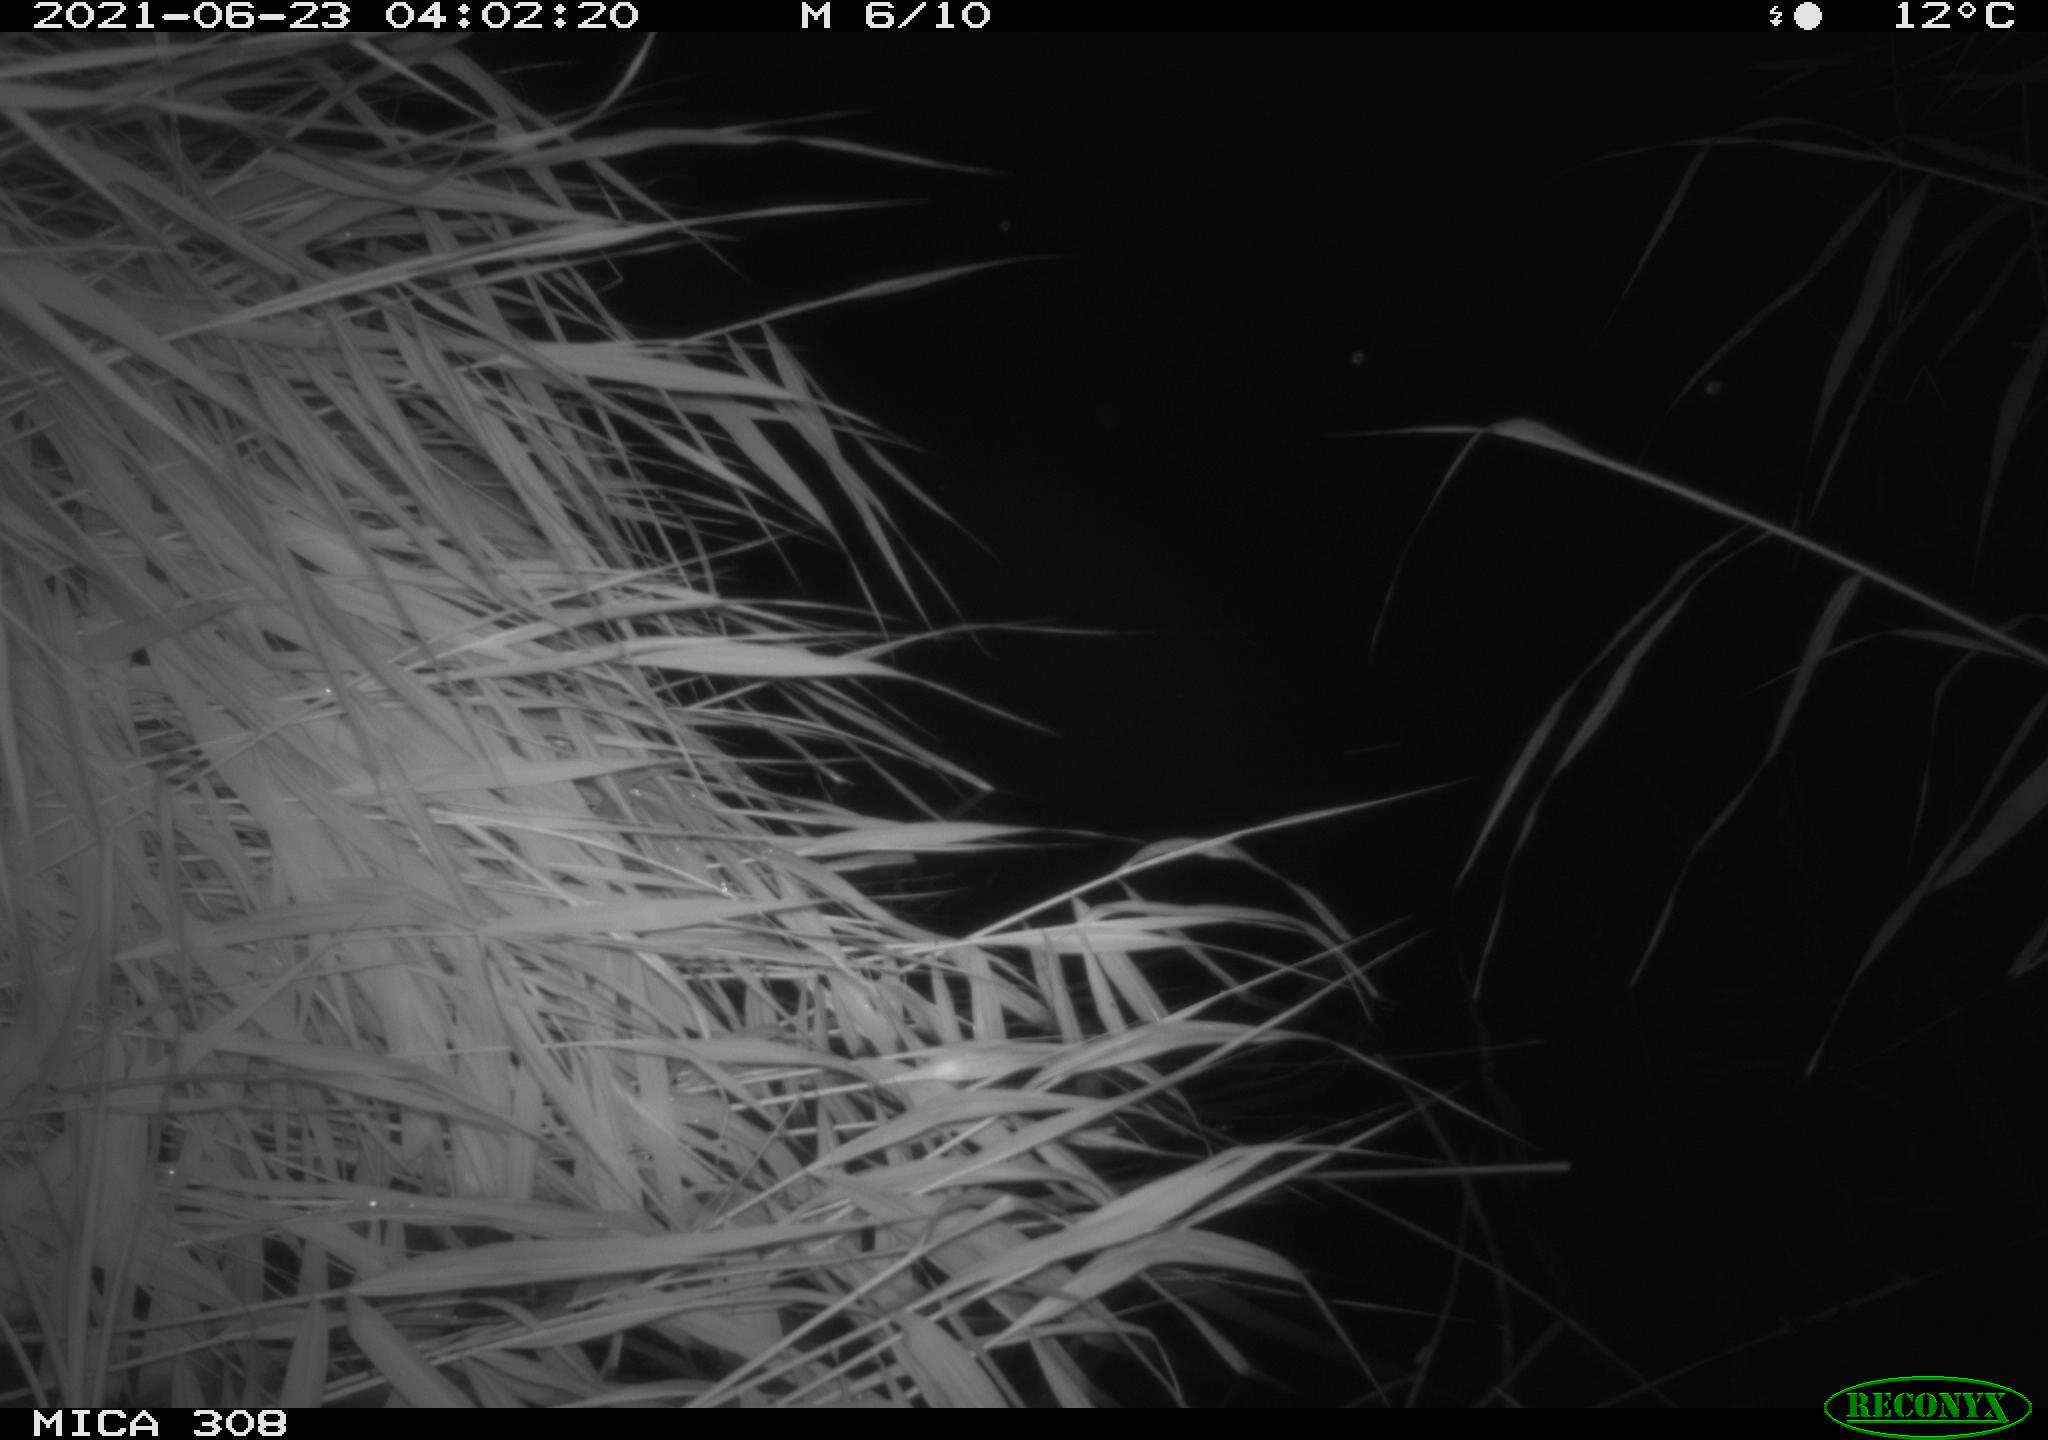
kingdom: Animalia
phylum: Chordata
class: Aves
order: Anseriformes
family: Anatidae
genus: Anas
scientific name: Anas platyrhynchos
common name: Mallard
